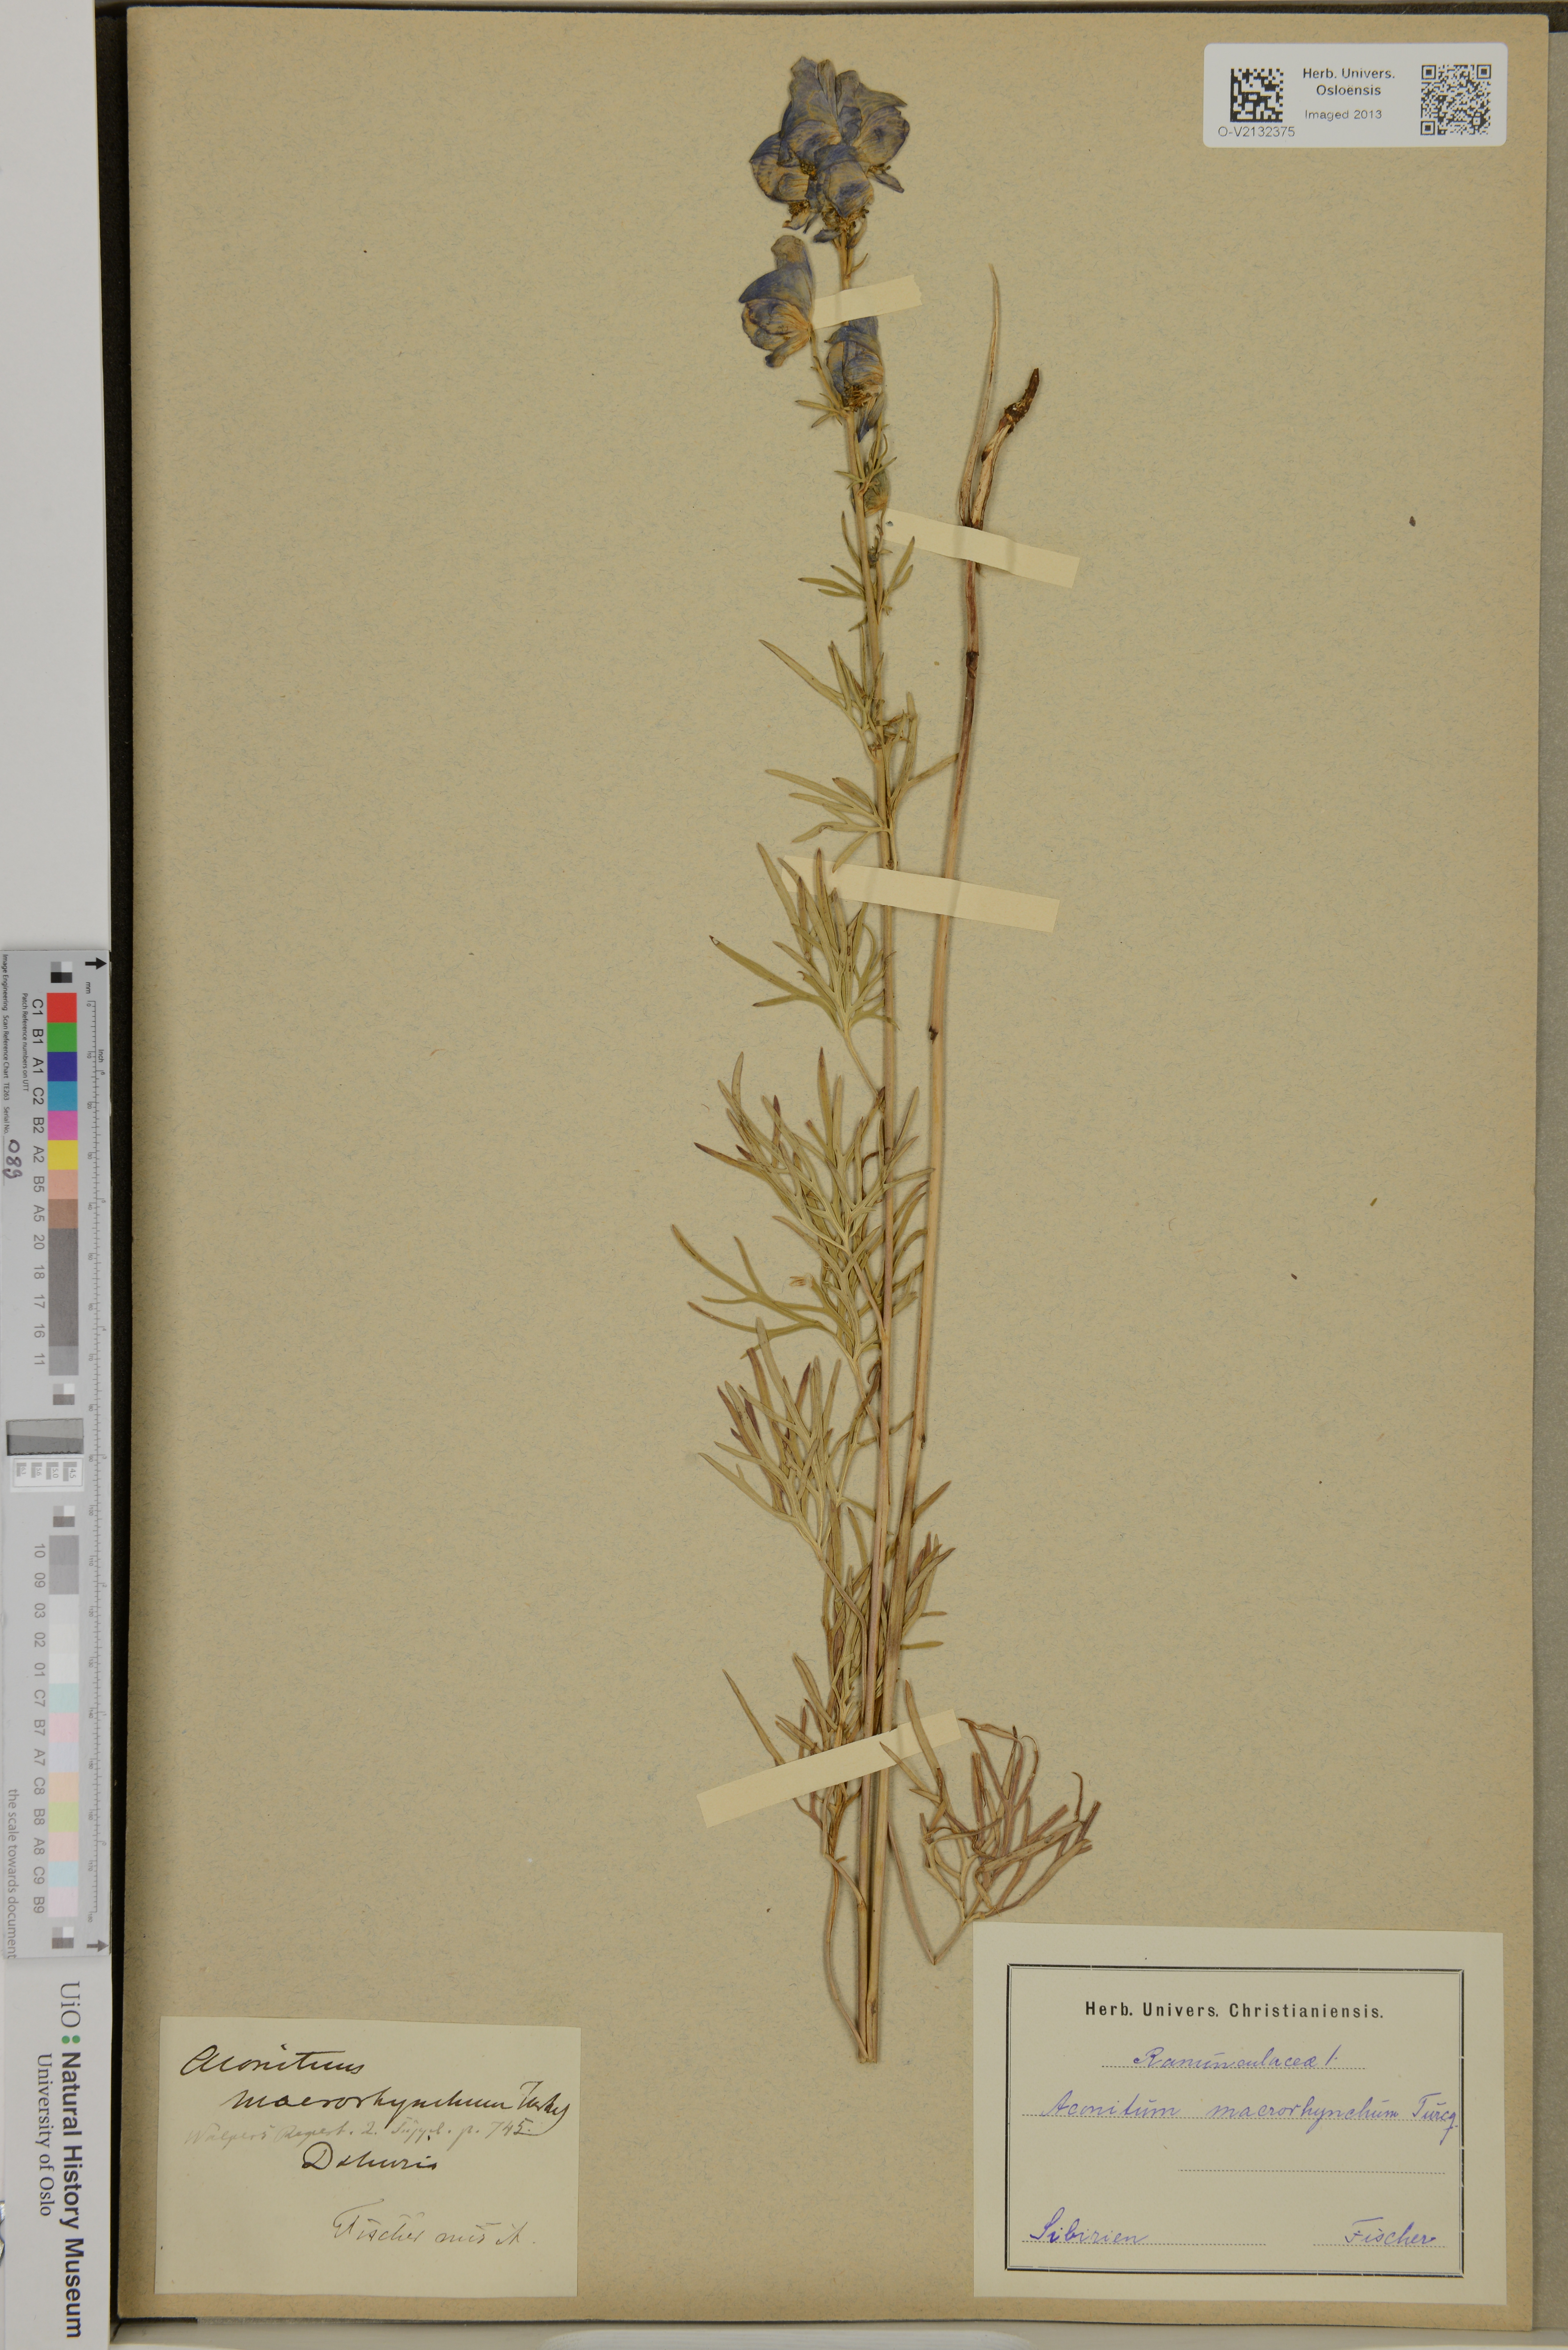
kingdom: Plantae
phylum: Tracheophyta
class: Magnoliopsida
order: Ranunculales
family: Ranunculaceae
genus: Aconitum
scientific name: Aconitum macrorhynchum
